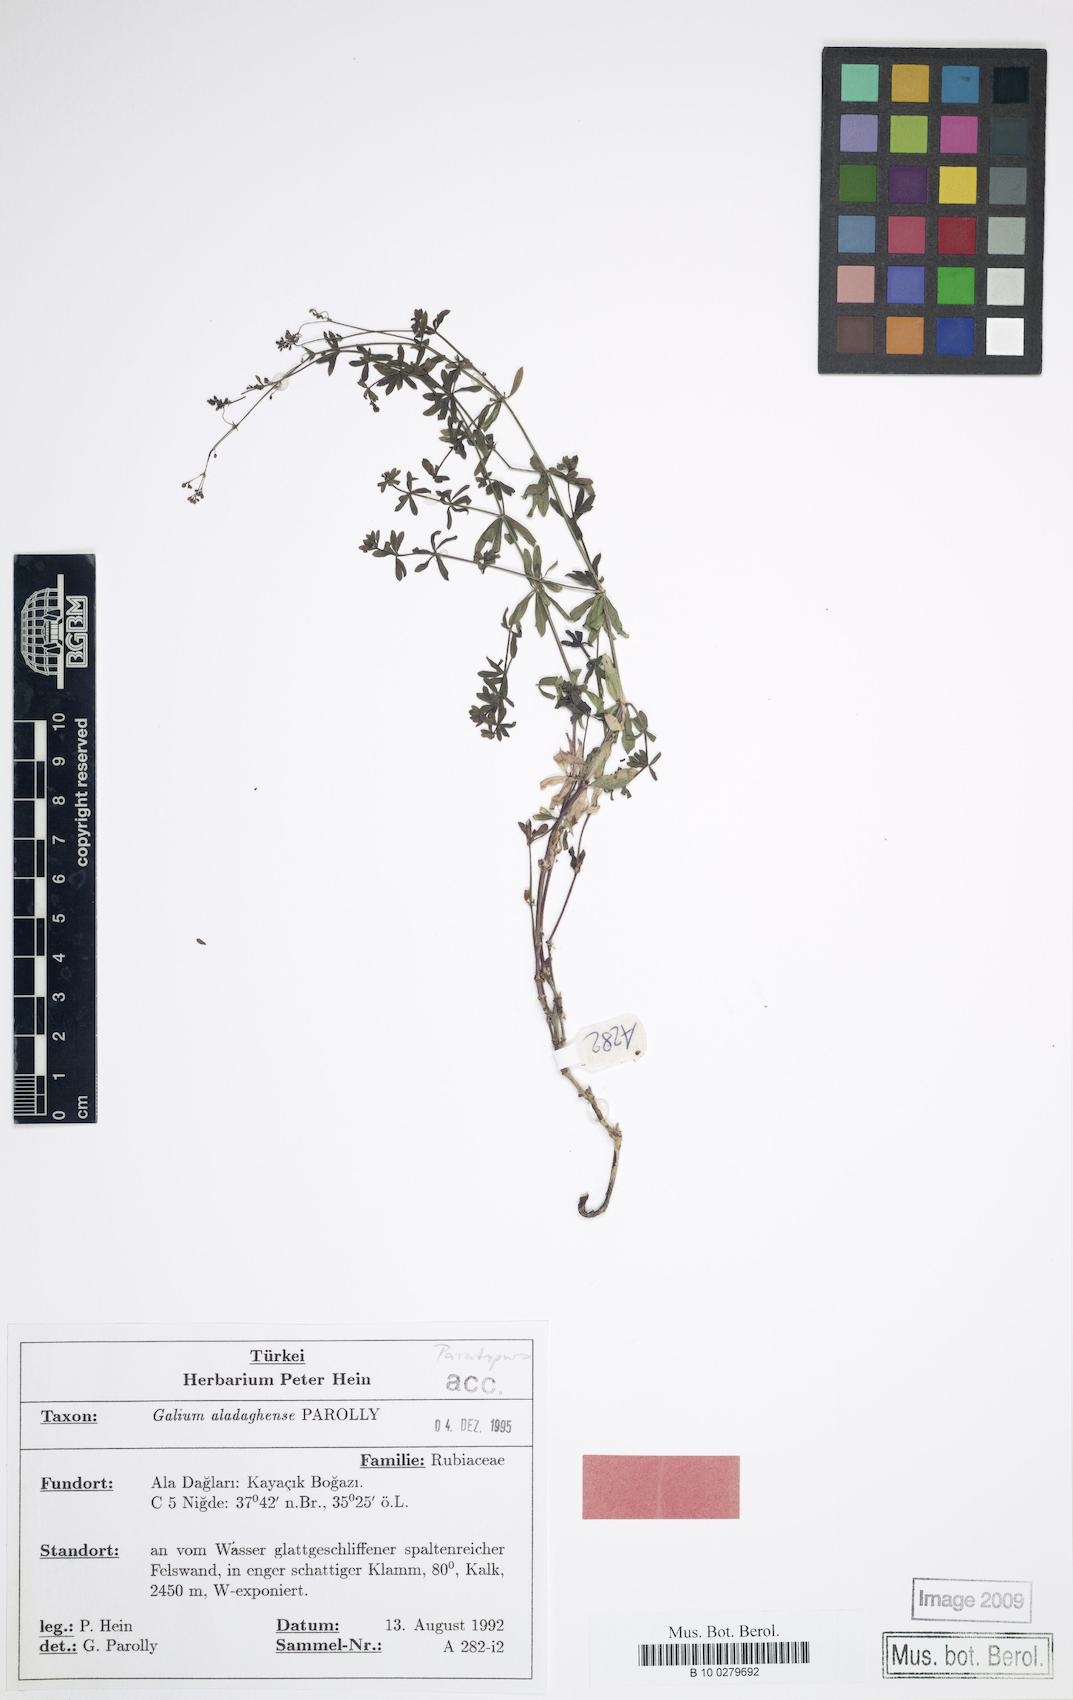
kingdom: Plantae
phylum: Tracheophyta
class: Magnoliopsida
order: Gentianales
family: Rubiaceae
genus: Galium
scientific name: Galium aladaghense
